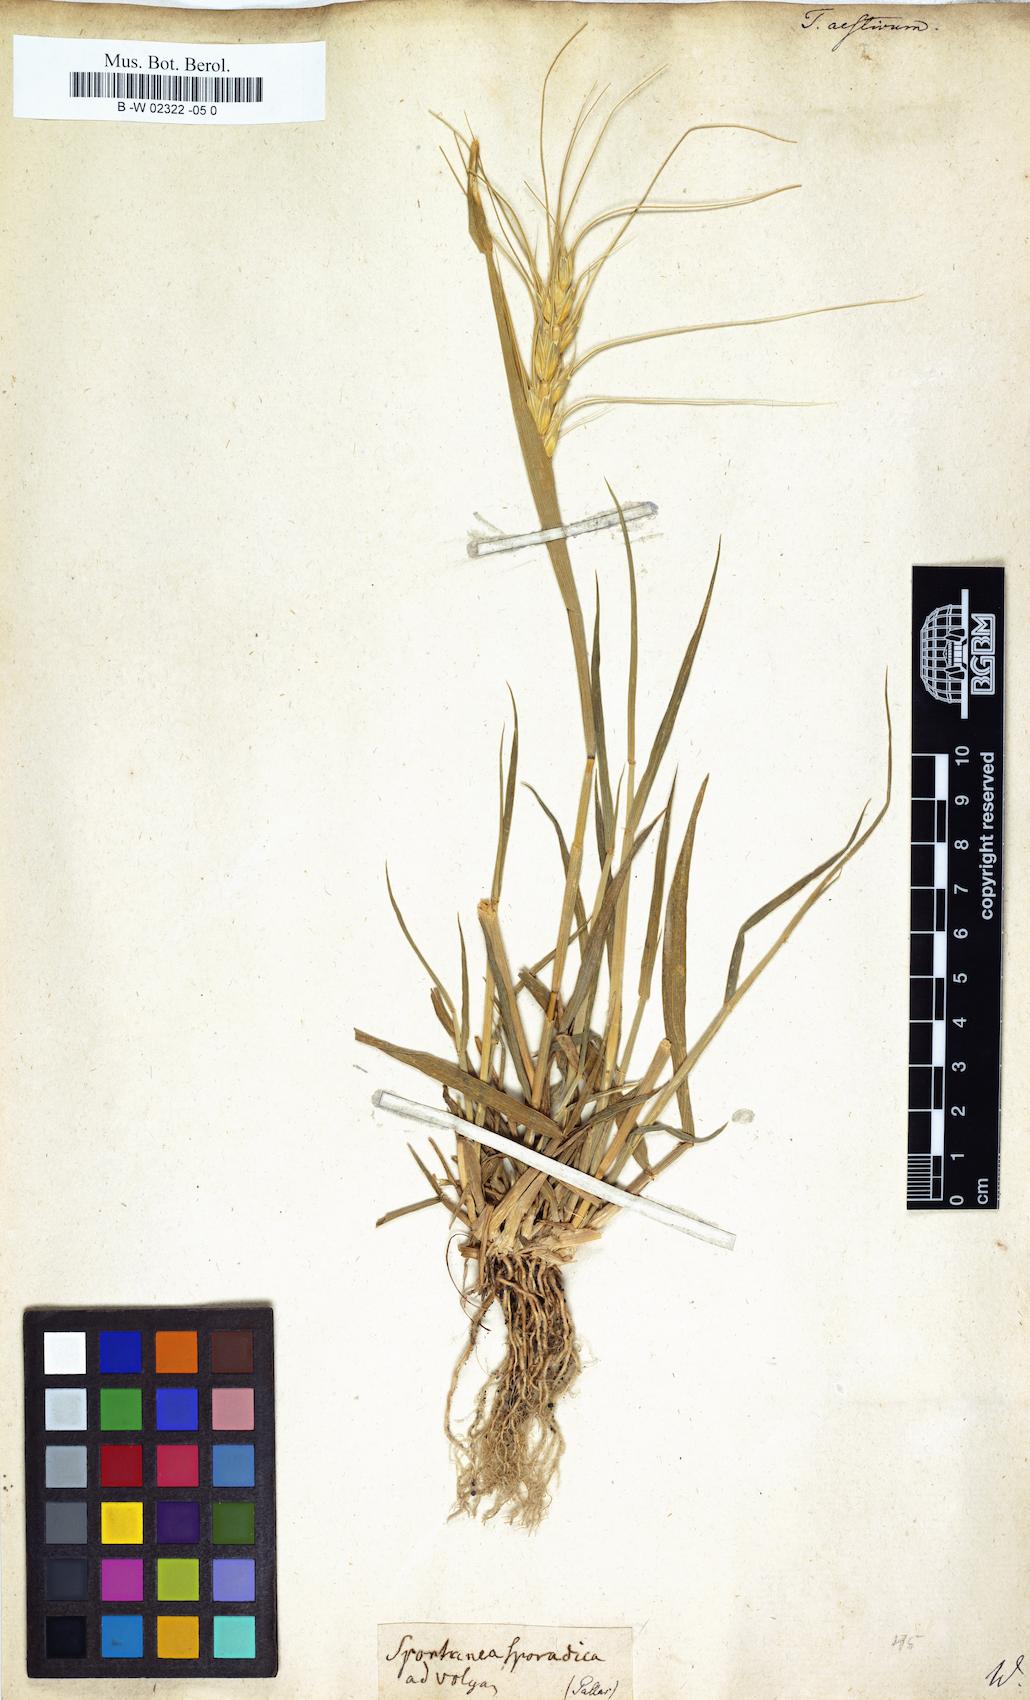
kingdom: Plantae
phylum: Tracheophyta
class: Liliopsida
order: Poales
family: Poaceae
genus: Triticum
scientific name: Triticum aestivum
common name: Common wheat
